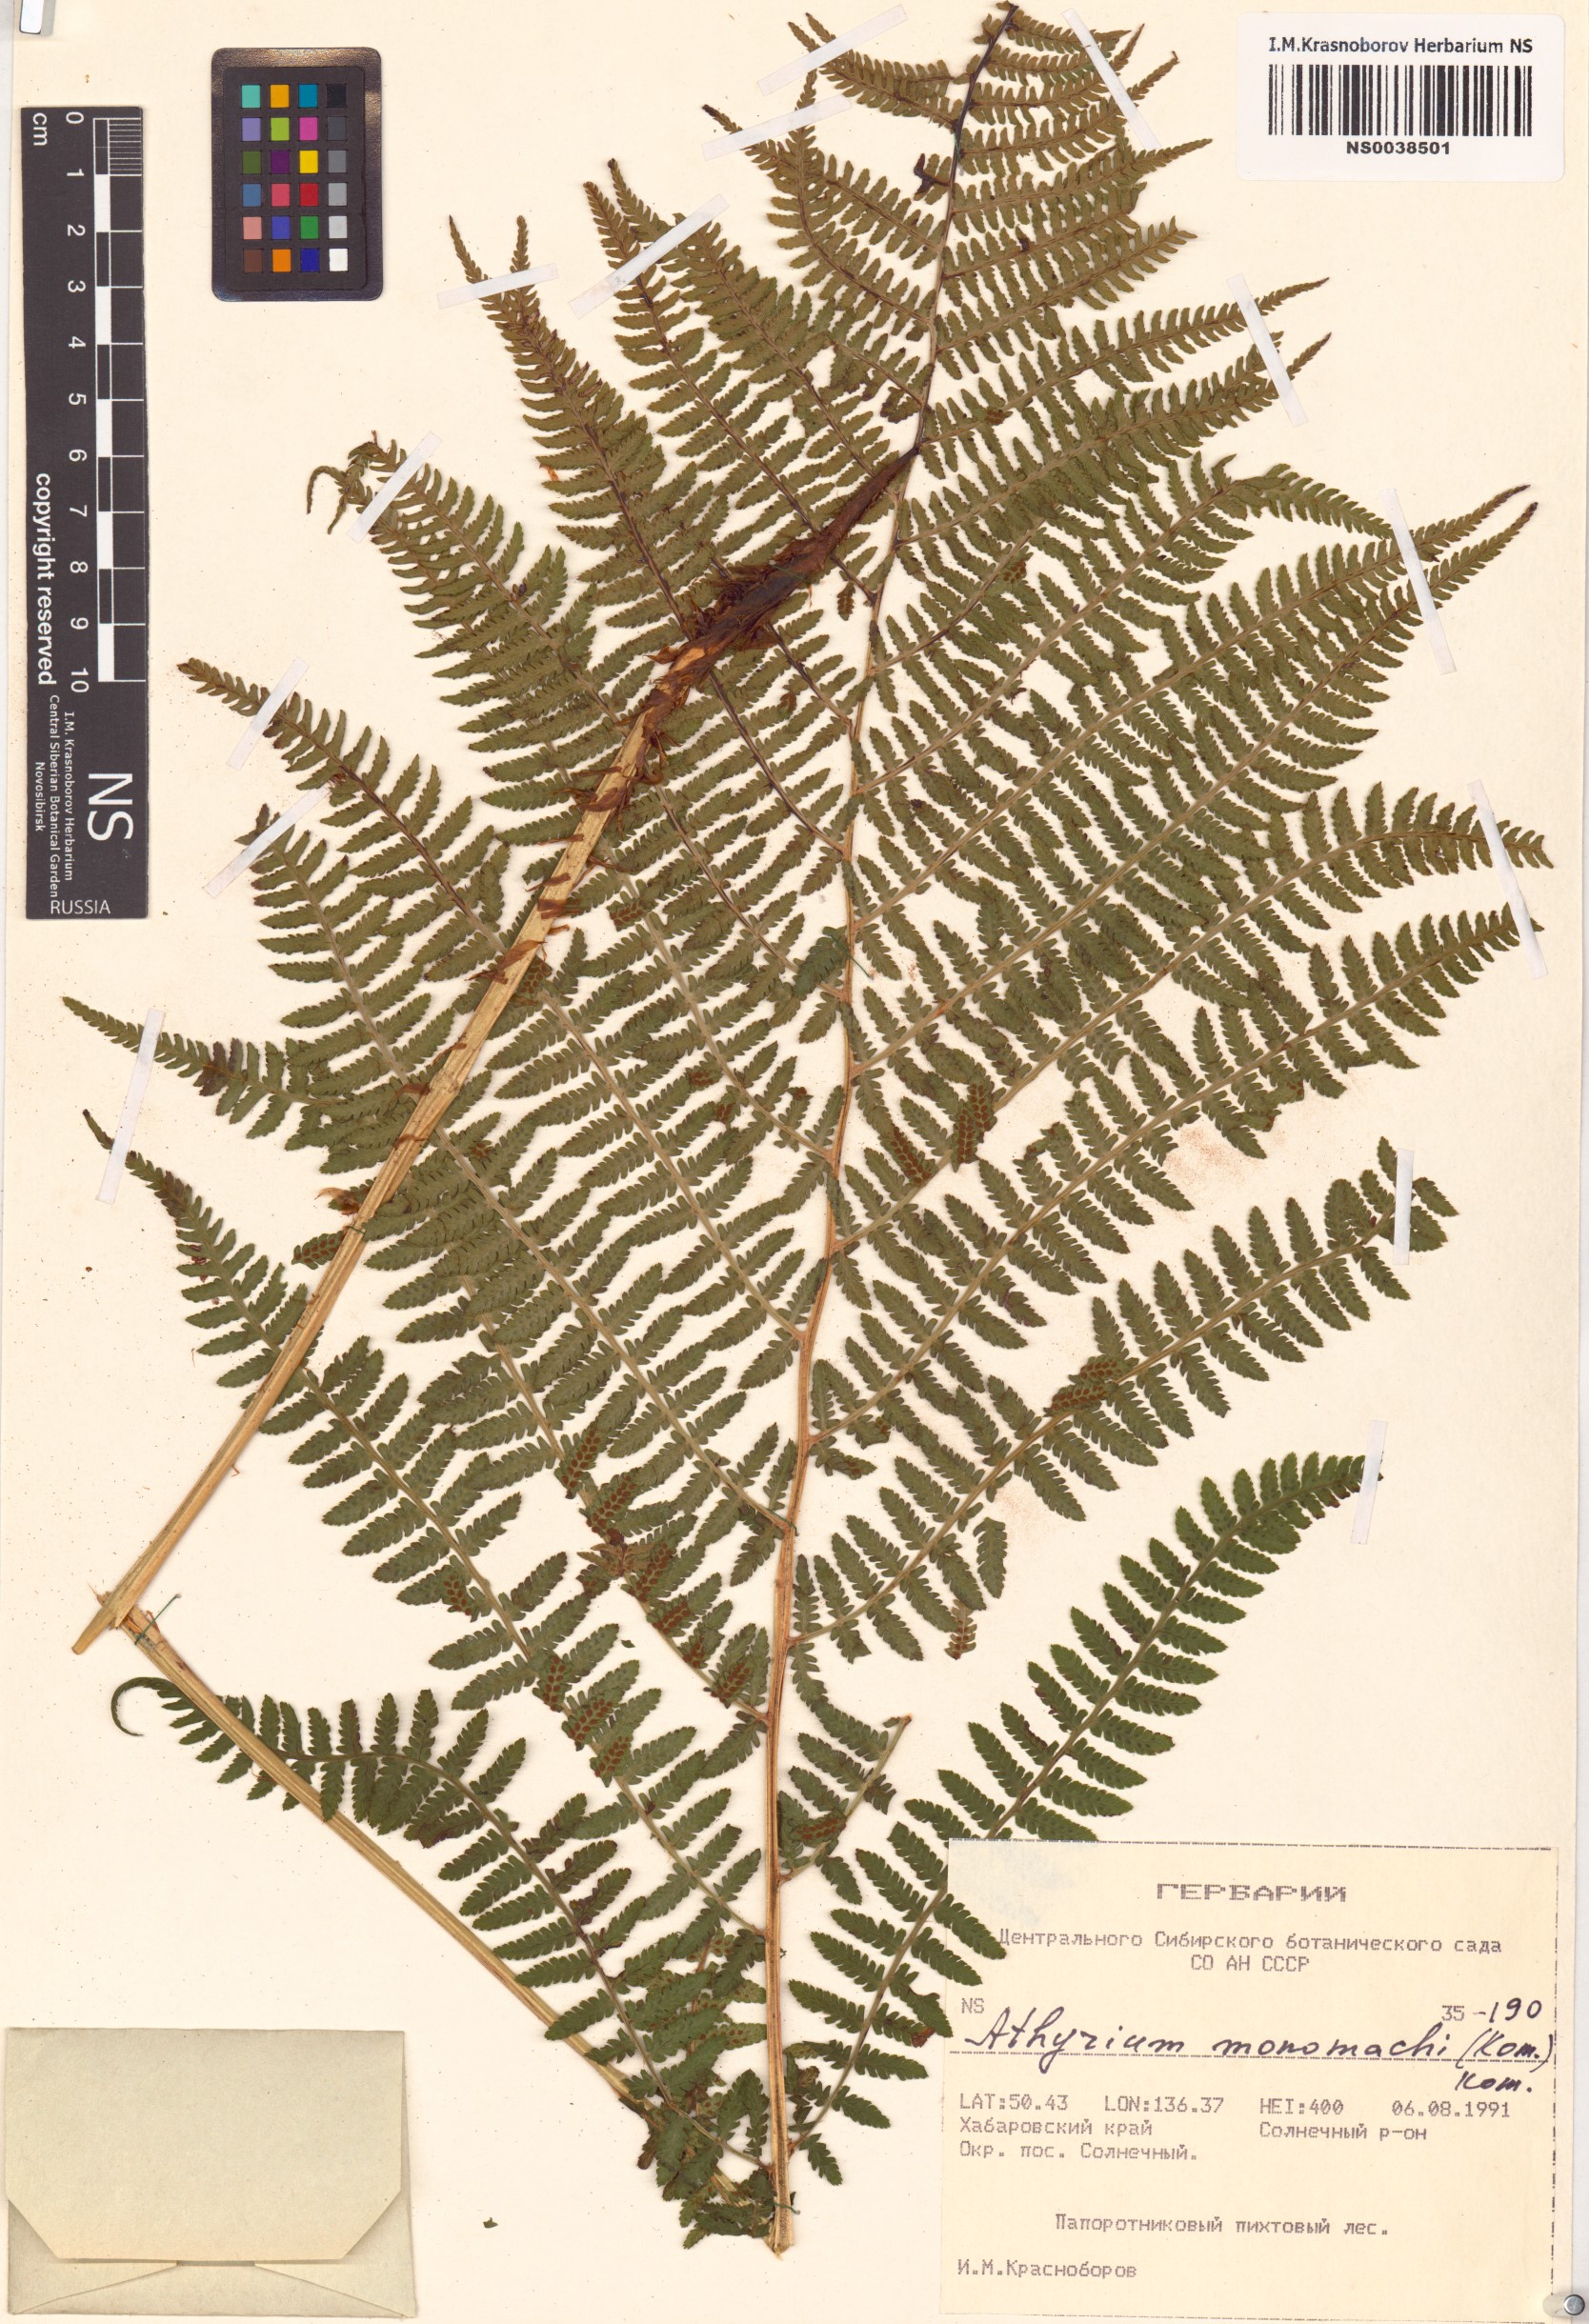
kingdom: Plantae
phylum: Tracheophyta
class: Polypodiopsida
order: Polypodiales
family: Athyriaceae
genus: Athyrium
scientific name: Athyrium monomachii
